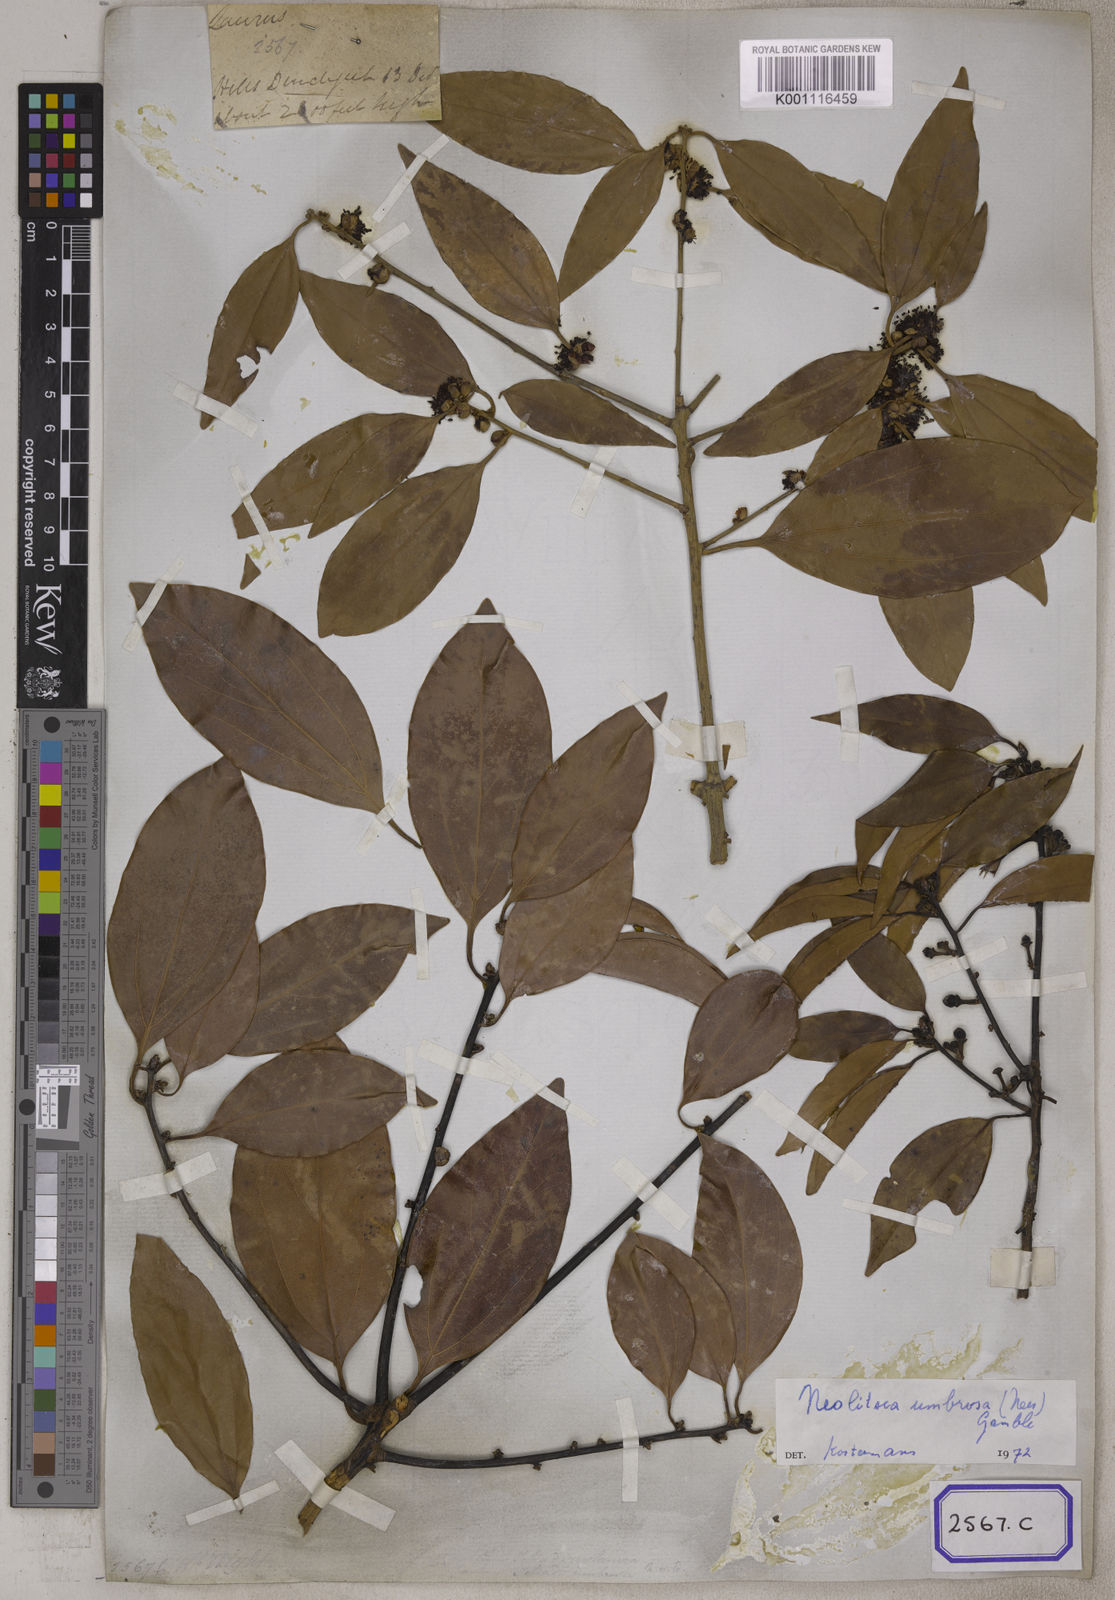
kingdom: Plantae
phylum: Tracheophyta
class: Magnoliopsida
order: Laurales
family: Lauraceae
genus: Lindera
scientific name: Lindera pulcherrima
